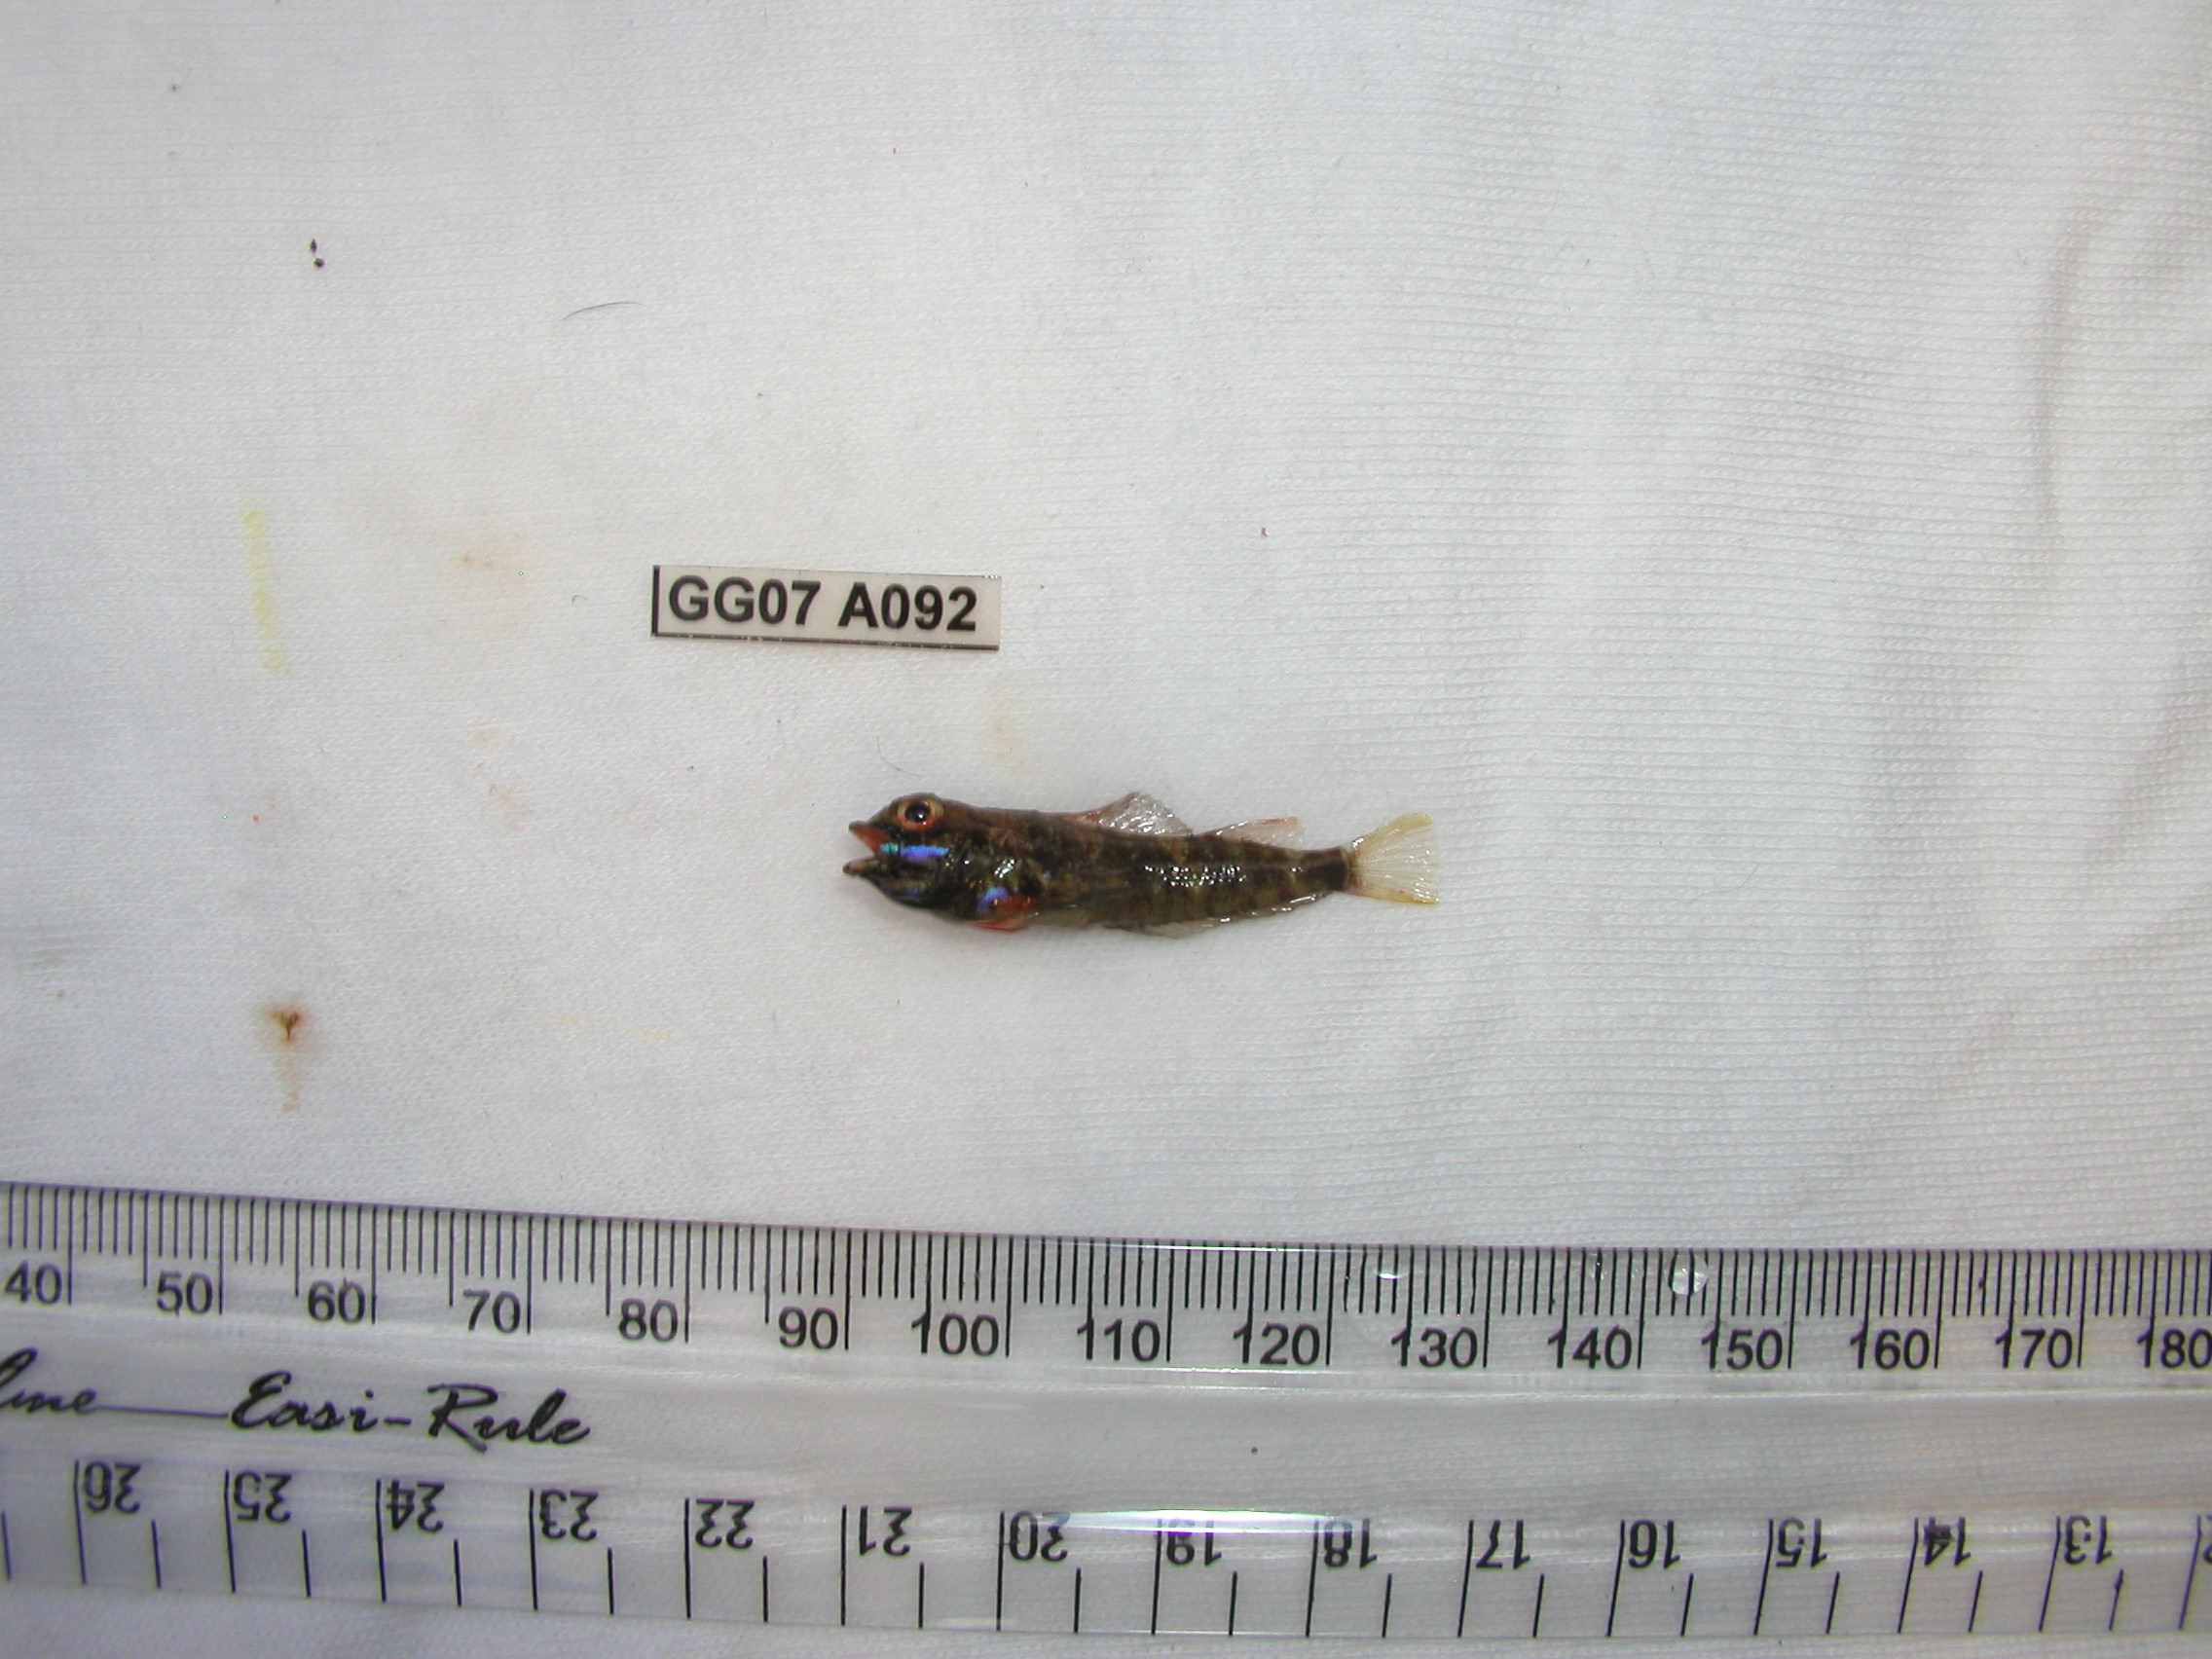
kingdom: Animalia
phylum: Chordata
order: Perciformes
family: Tripterygiidae
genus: Helcogramma
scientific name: Helcogramma rharhabe
